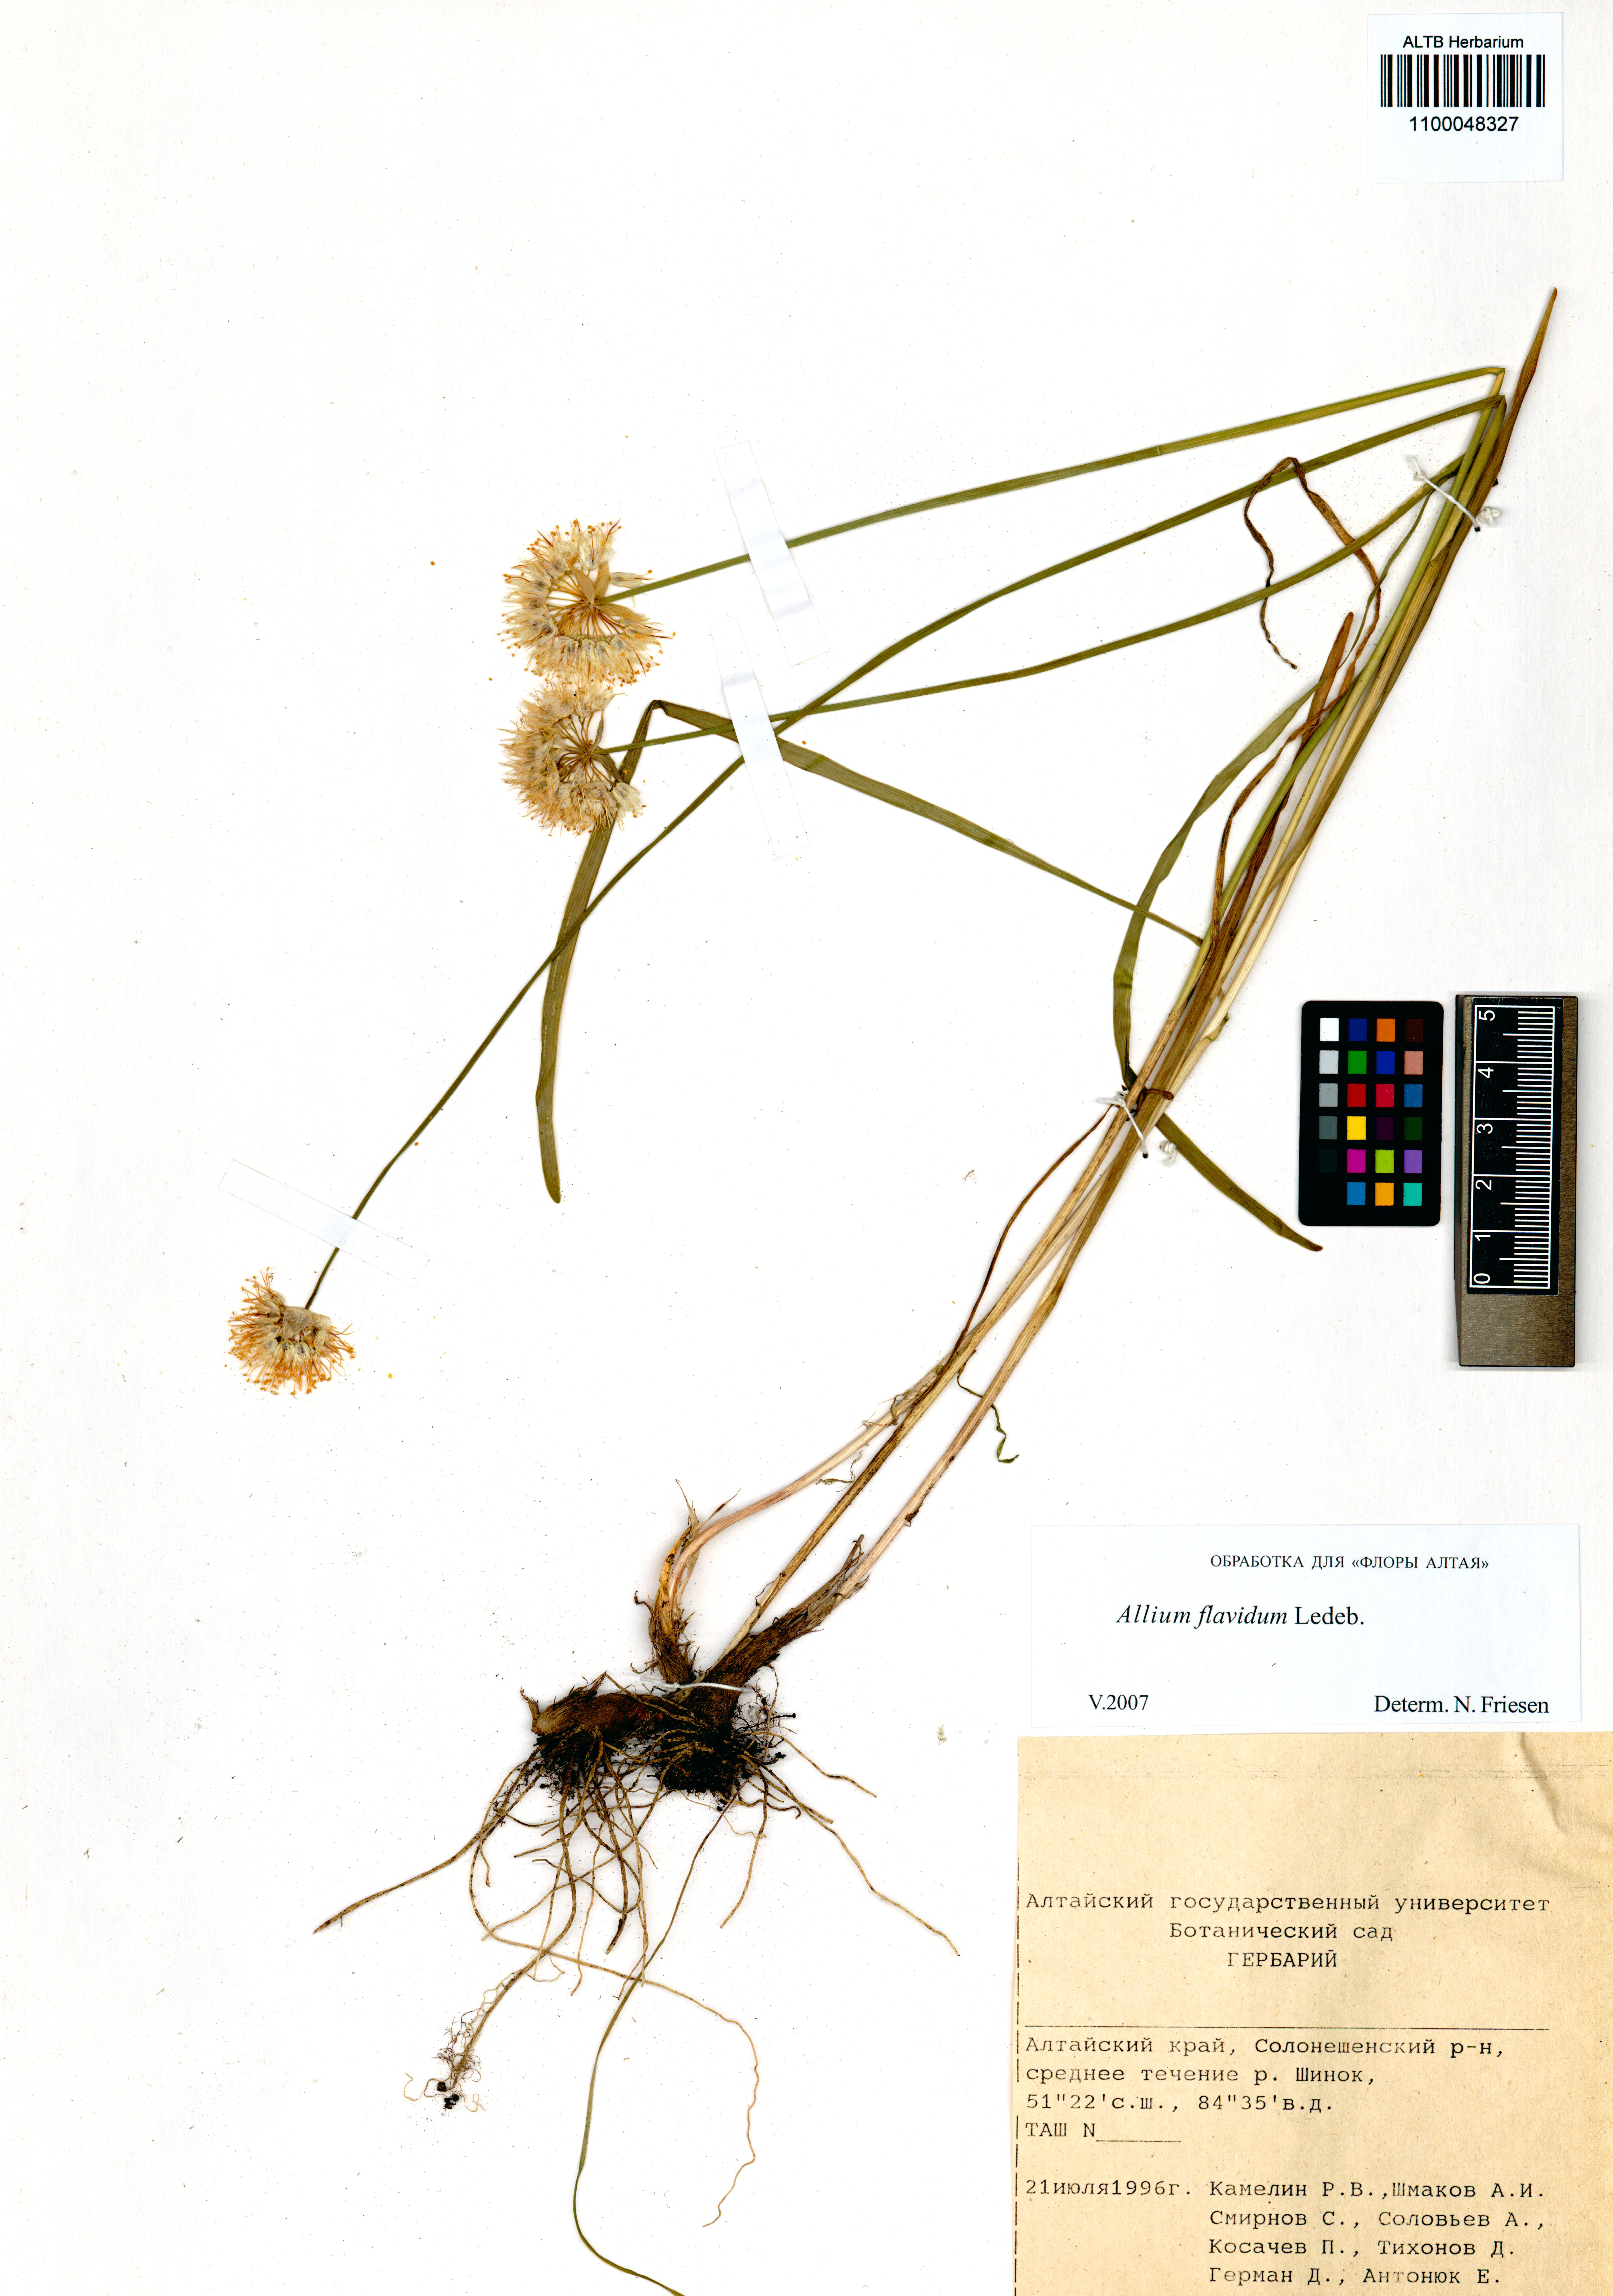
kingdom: Plantae
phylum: Tracheophyta
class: Liliopsida
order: Asparagales
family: Amaryllidaceae
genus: Allium
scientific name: Allium flavidum
